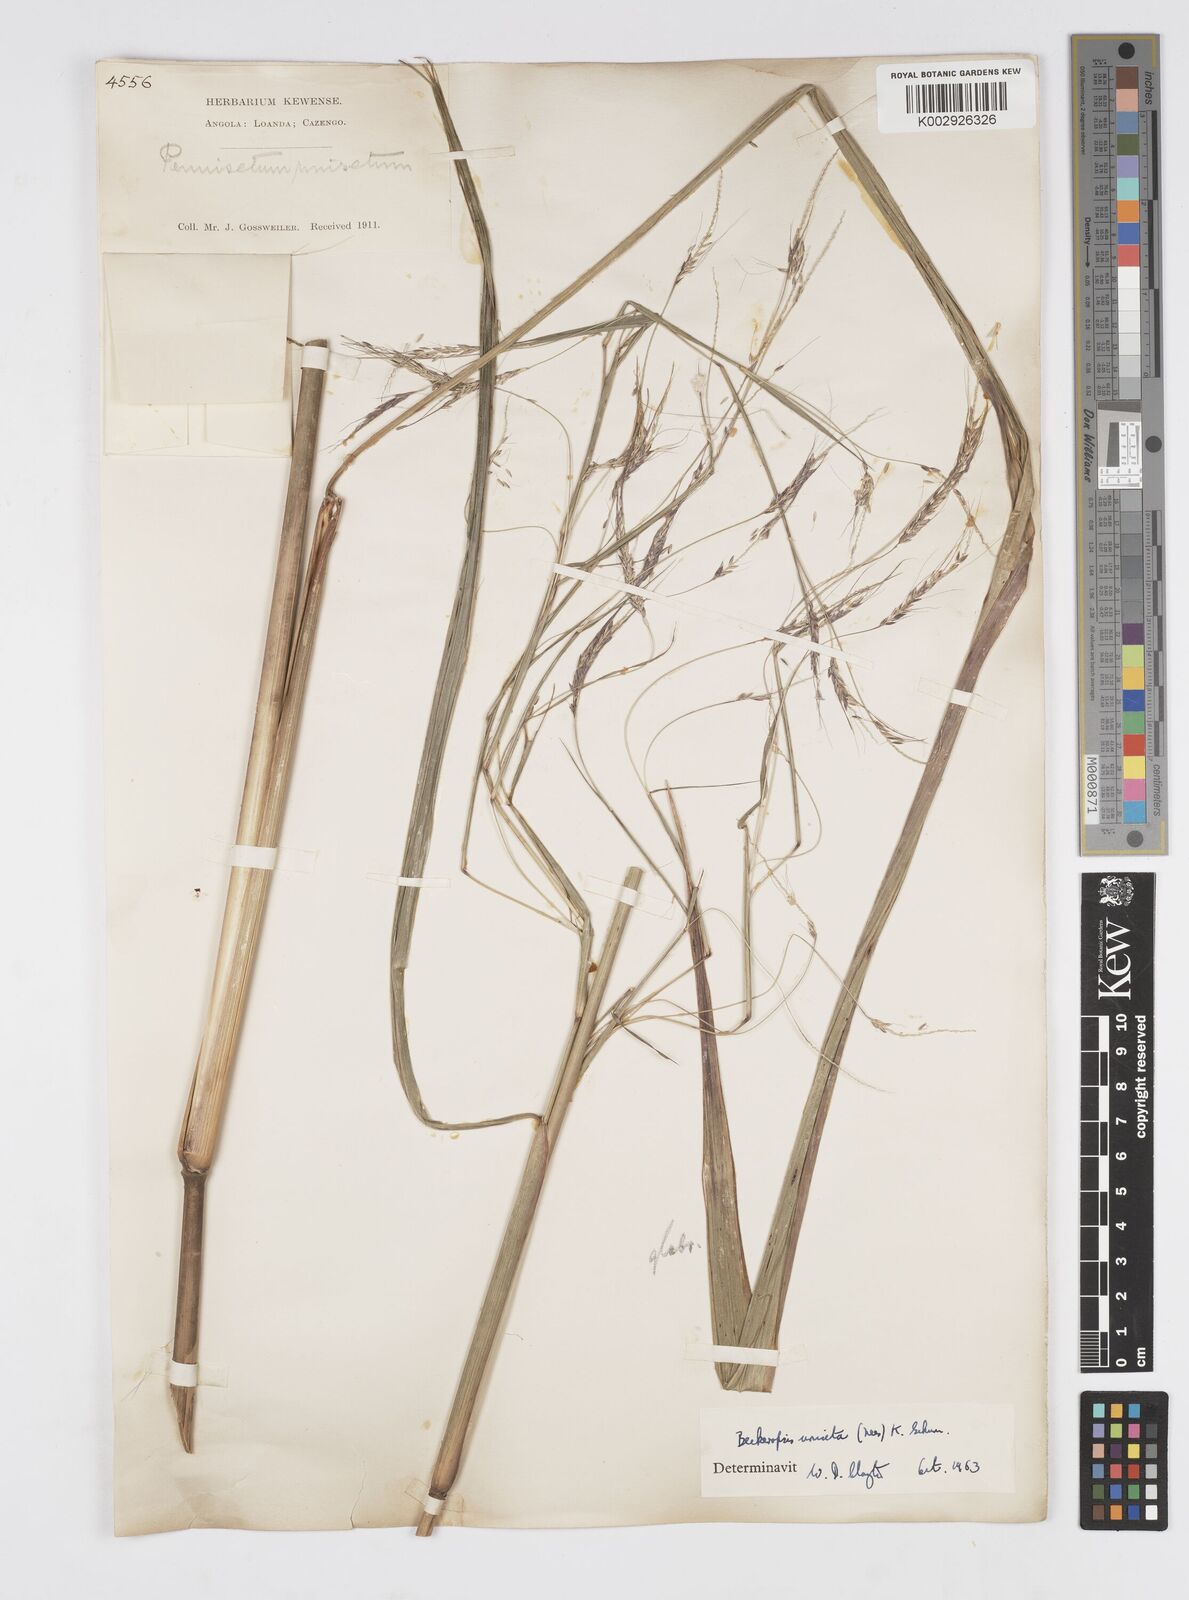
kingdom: Plantae
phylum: Tracheophyta
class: Liliopsida
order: Poales
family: Poaceae
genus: Cenchrus
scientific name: Cenchrus unisetus
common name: Natal grass
